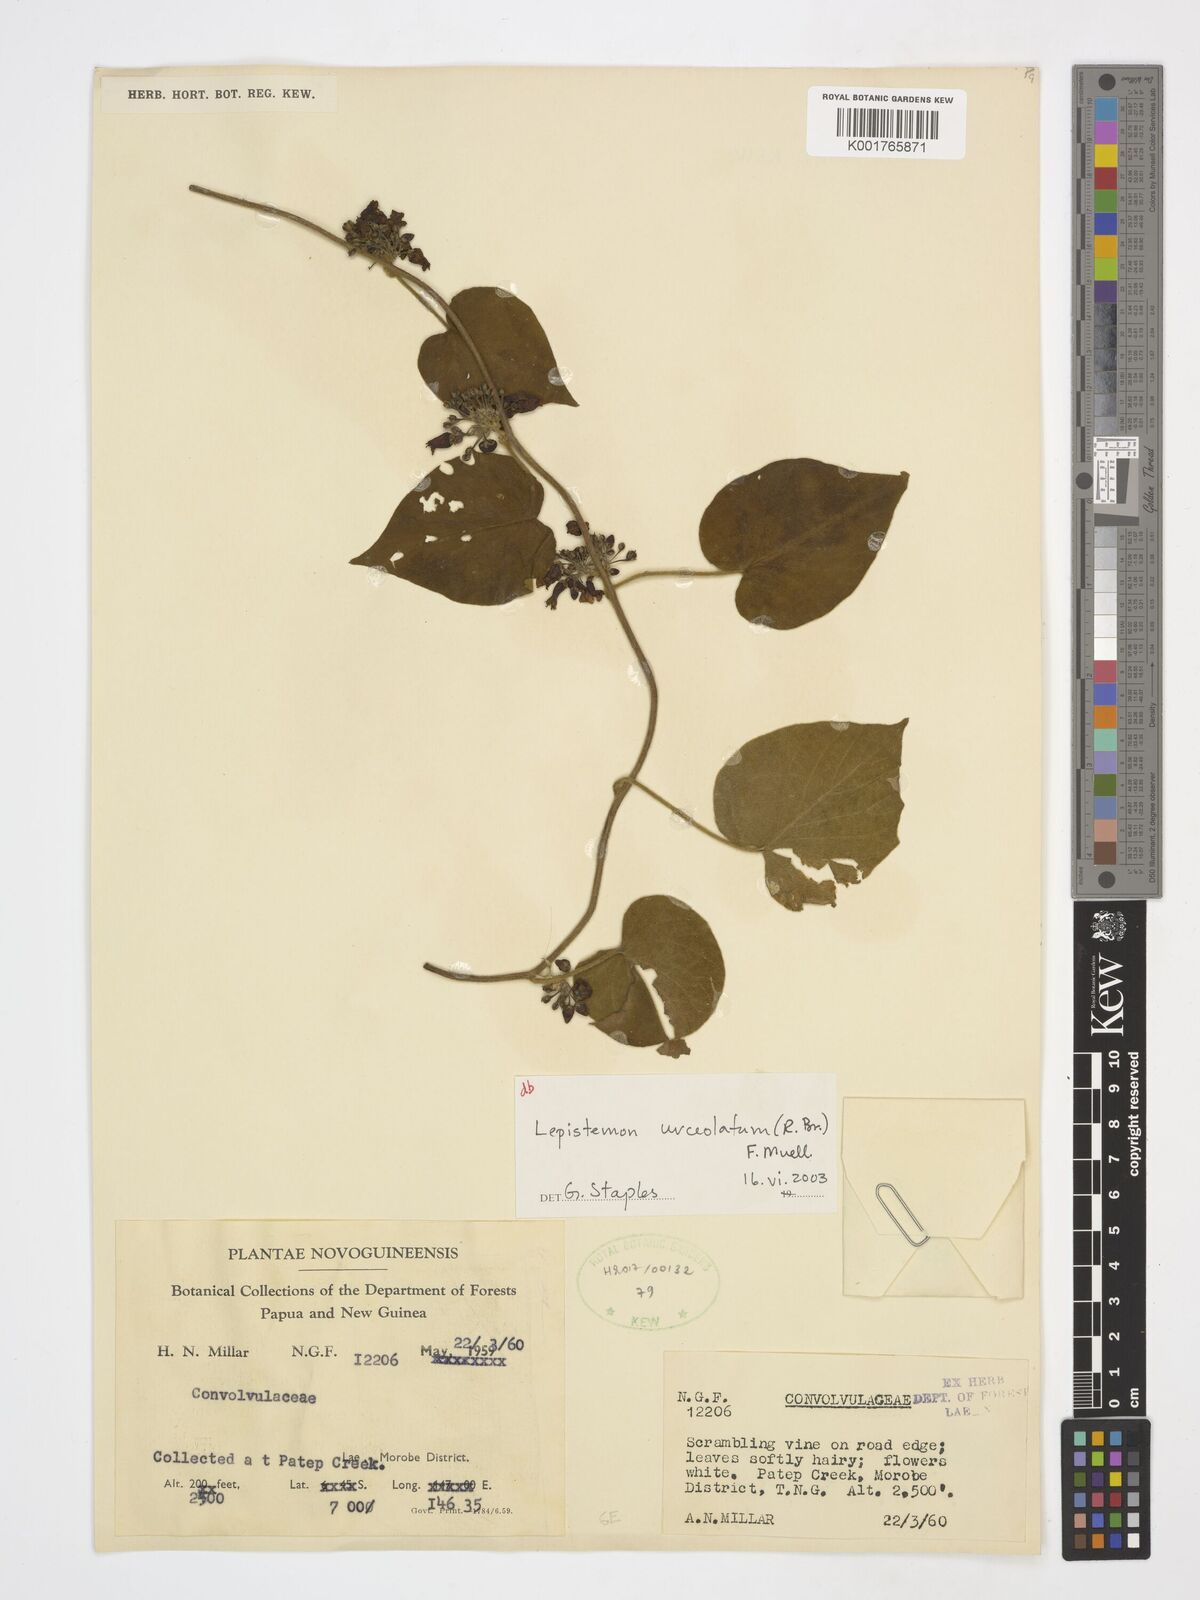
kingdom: Plantae
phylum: Tracheophyta
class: Magnoliopsida
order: Solanales
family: Convolvulaceae
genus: Lepistemon
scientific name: Lepistemon urceolatus
